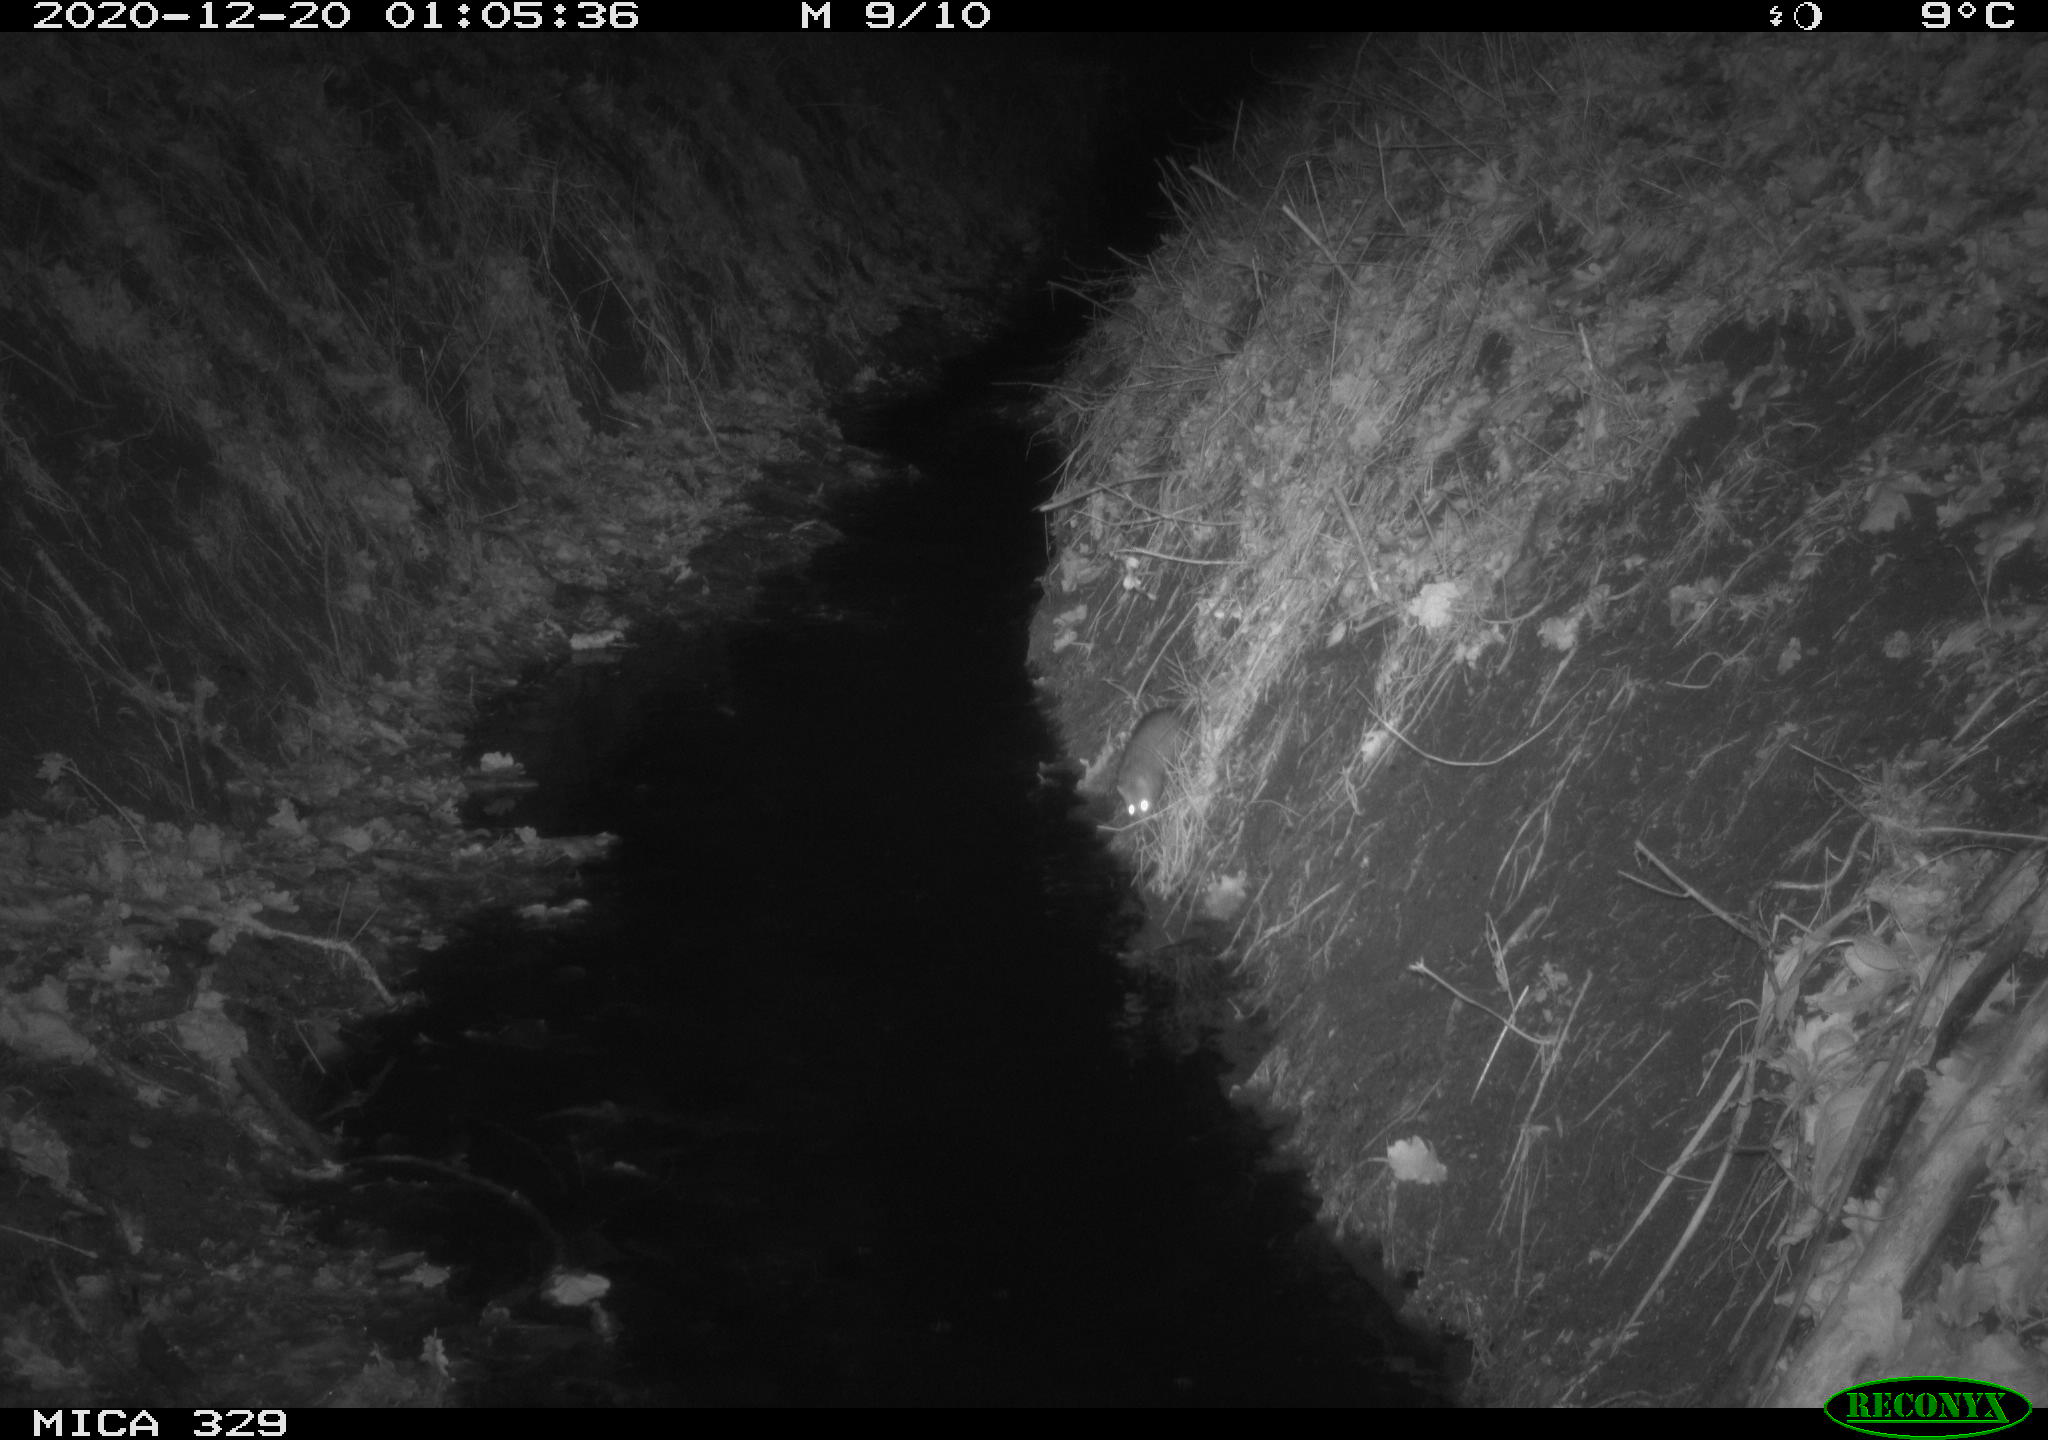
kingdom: Animalia
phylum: Chordata
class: Mammalia
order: Rodentia
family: Muridae
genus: Rattus
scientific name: Rattus norvegicus
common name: Brown rat
